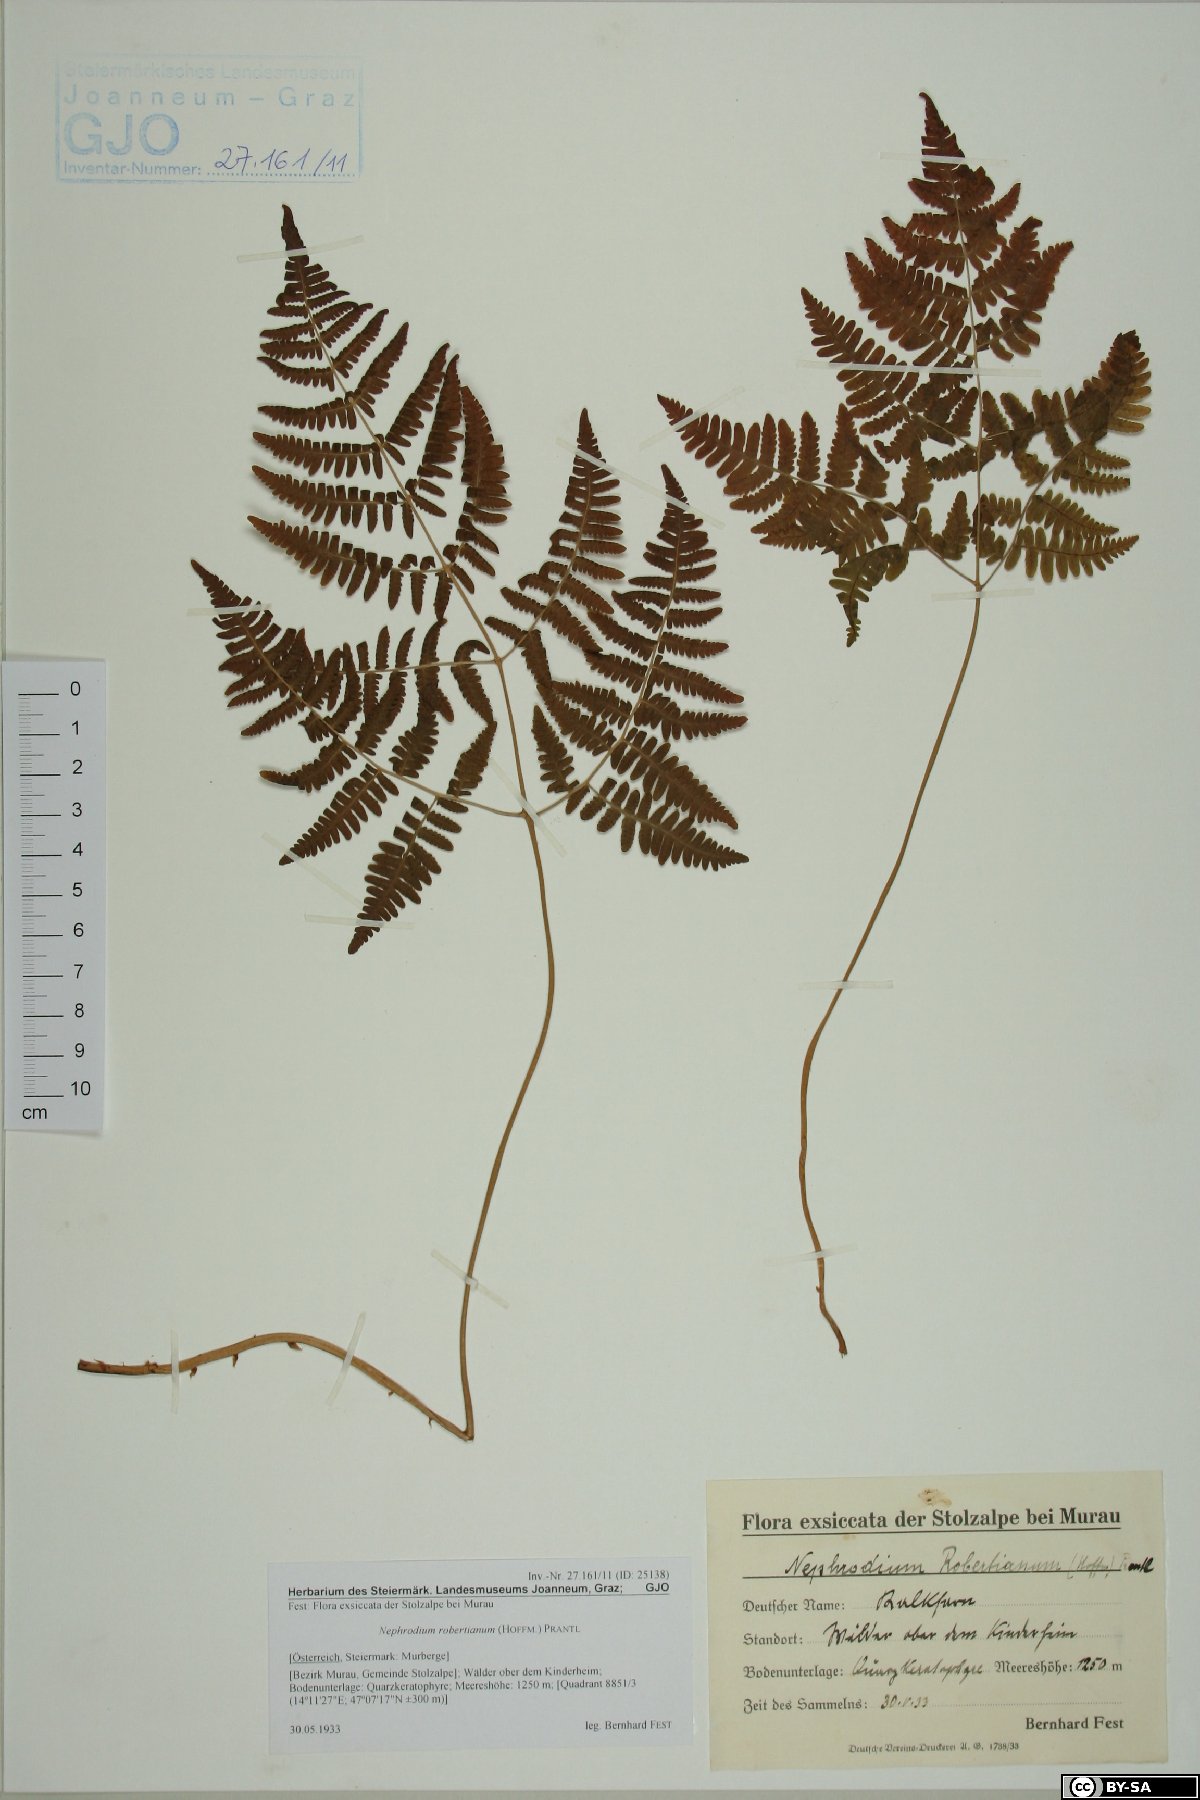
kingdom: Plantae
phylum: Tracheophyta
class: Polypodiopsida
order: Polypodiales
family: Cystopteridaceae
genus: Gymnocarpium
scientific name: Gymnocarpium robertianum
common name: Limestone fern
